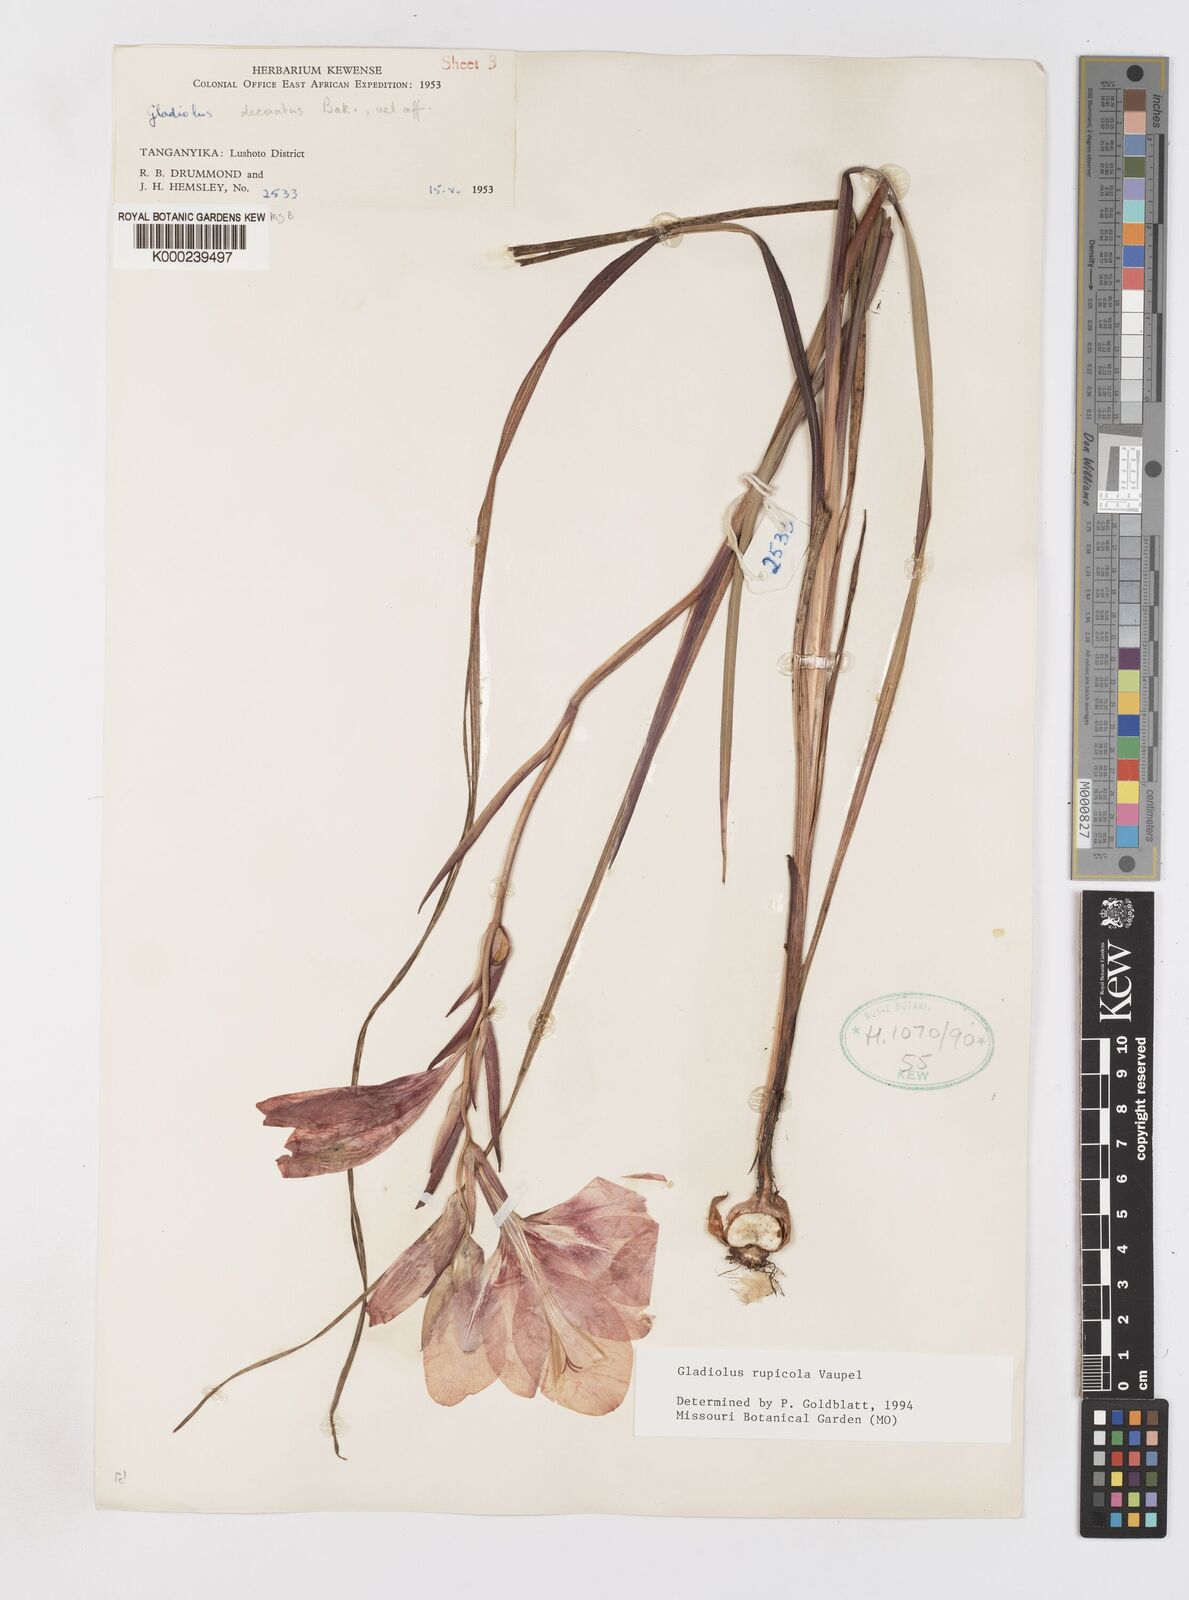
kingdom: Plantae
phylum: Tracheophyta
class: Liliopsida
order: Asparagales
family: Iridaceae
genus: Gladiolus
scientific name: Gladiolus rupicola
